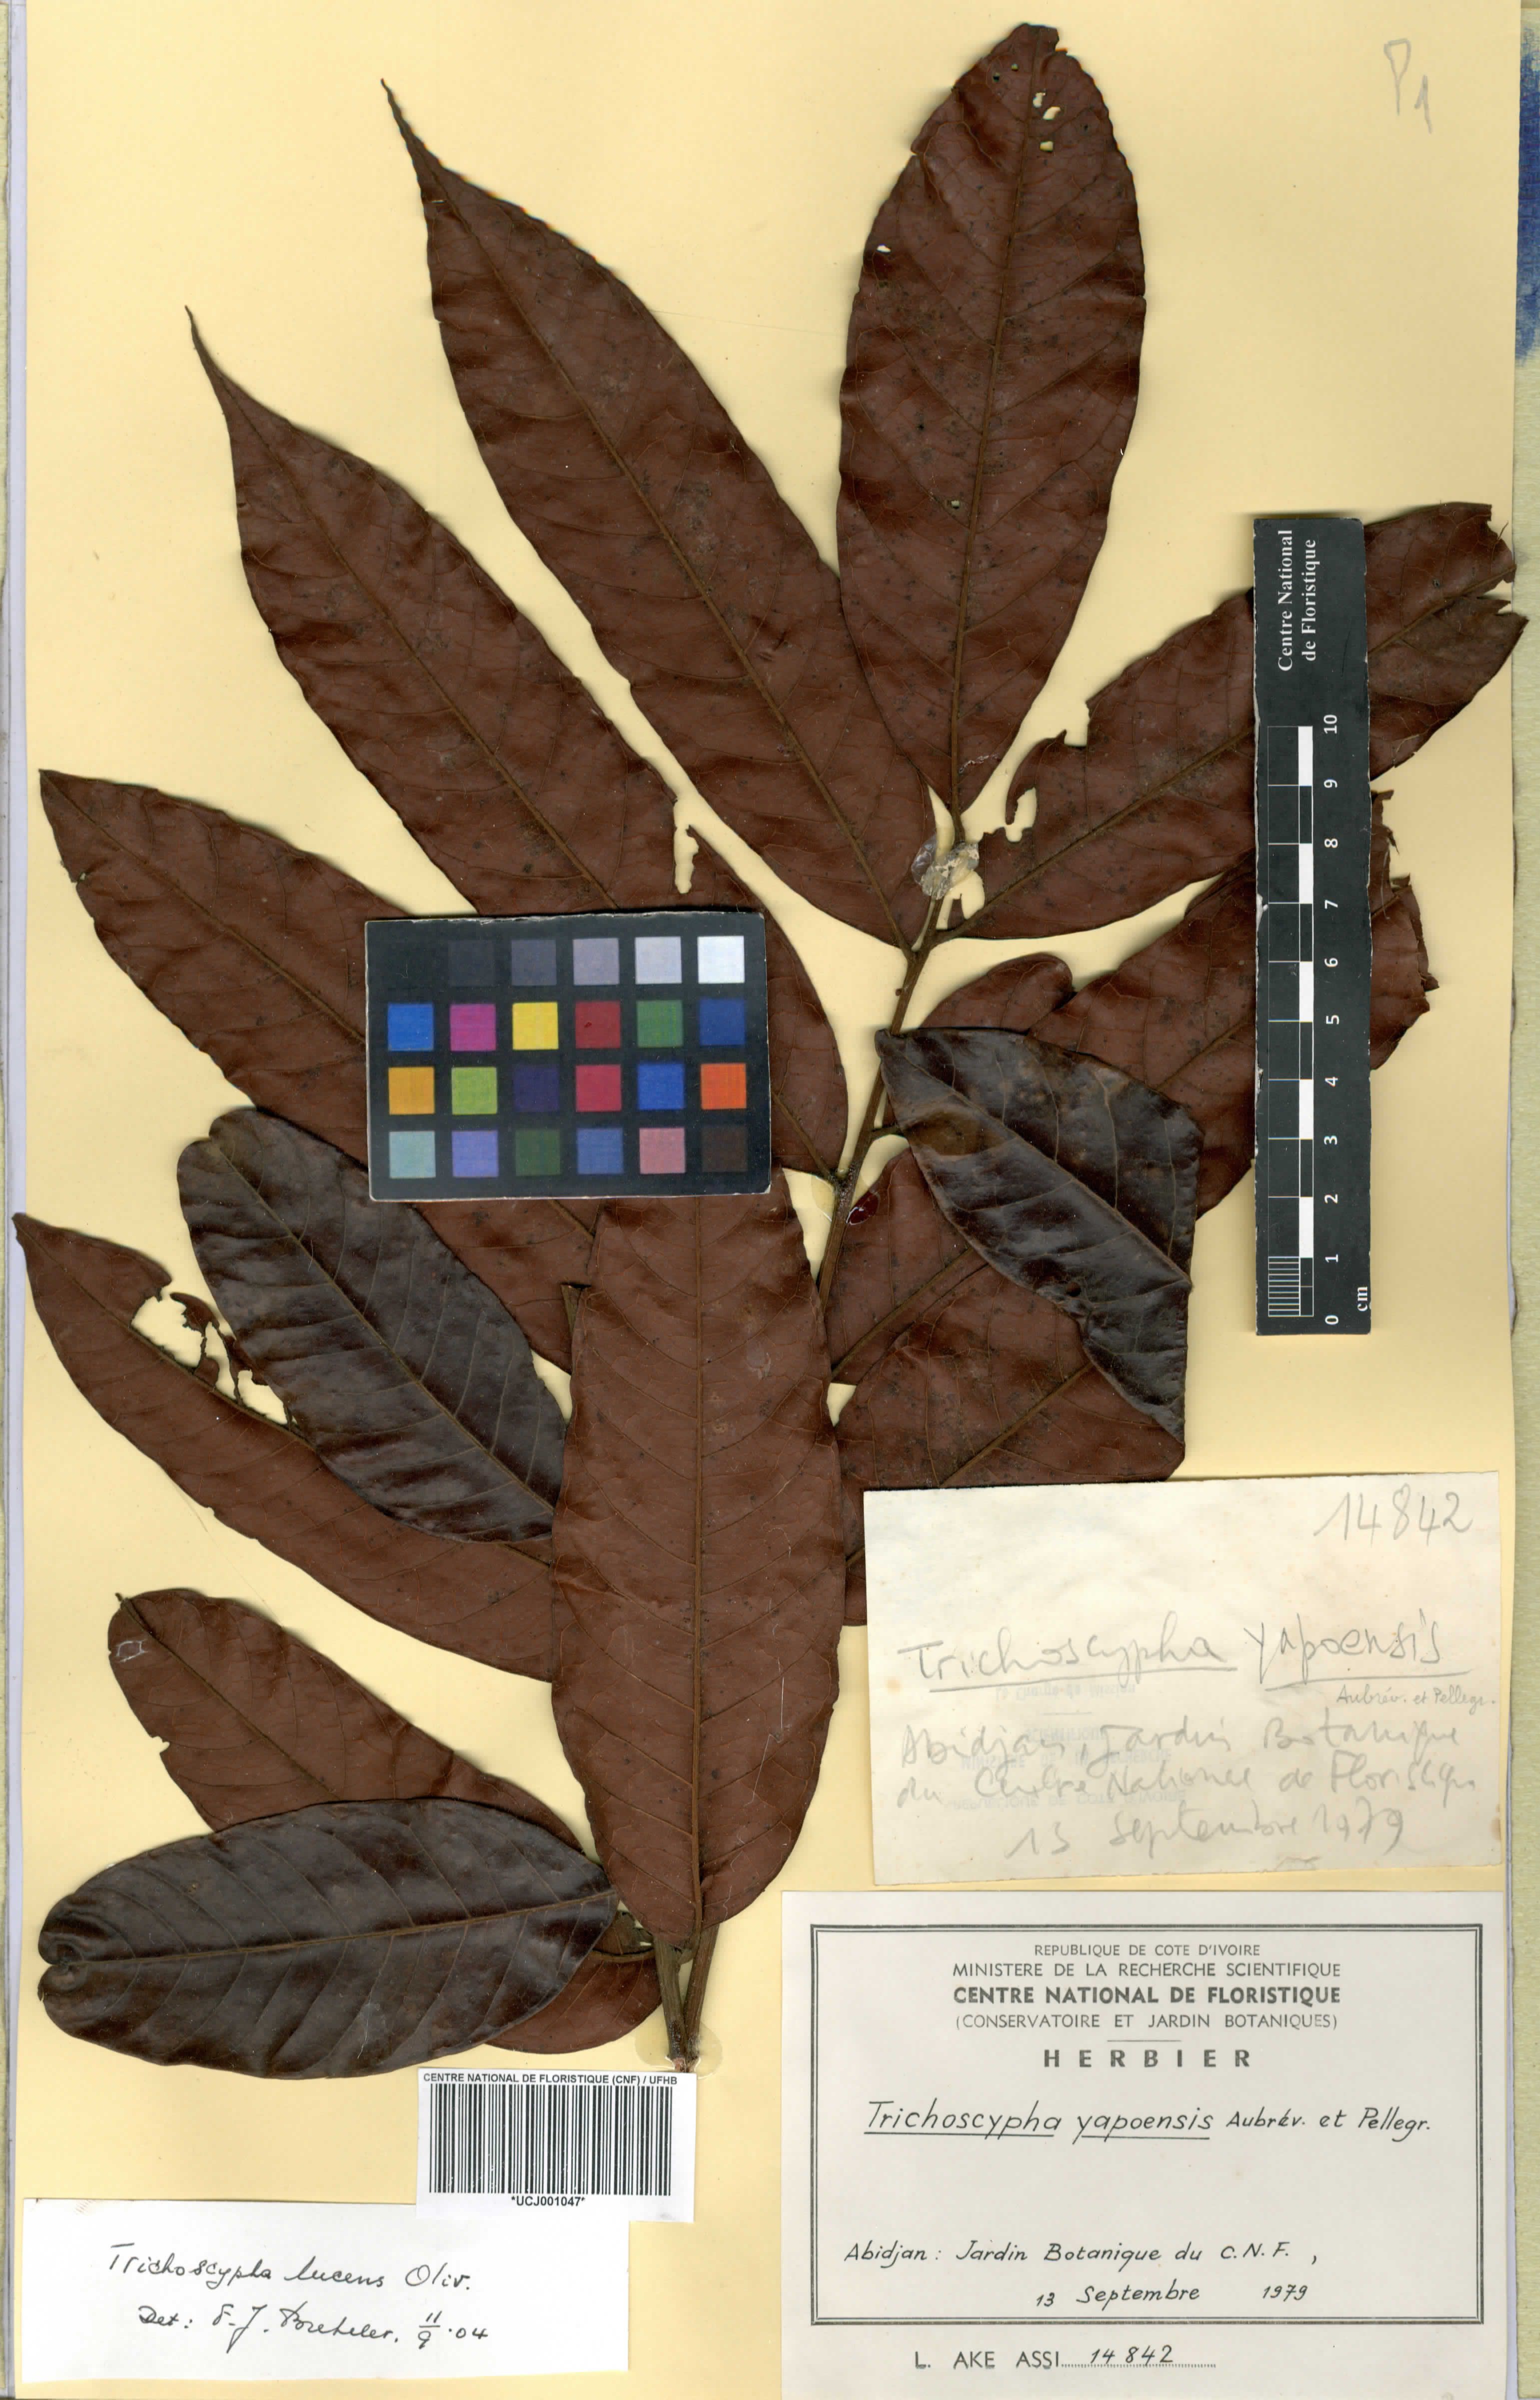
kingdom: Plantae
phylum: Tracheophyta
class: Magnoliopsida
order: Sapindales
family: Anacardiaceae
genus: Trichoscypha
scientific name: Trichoscypha lucens
